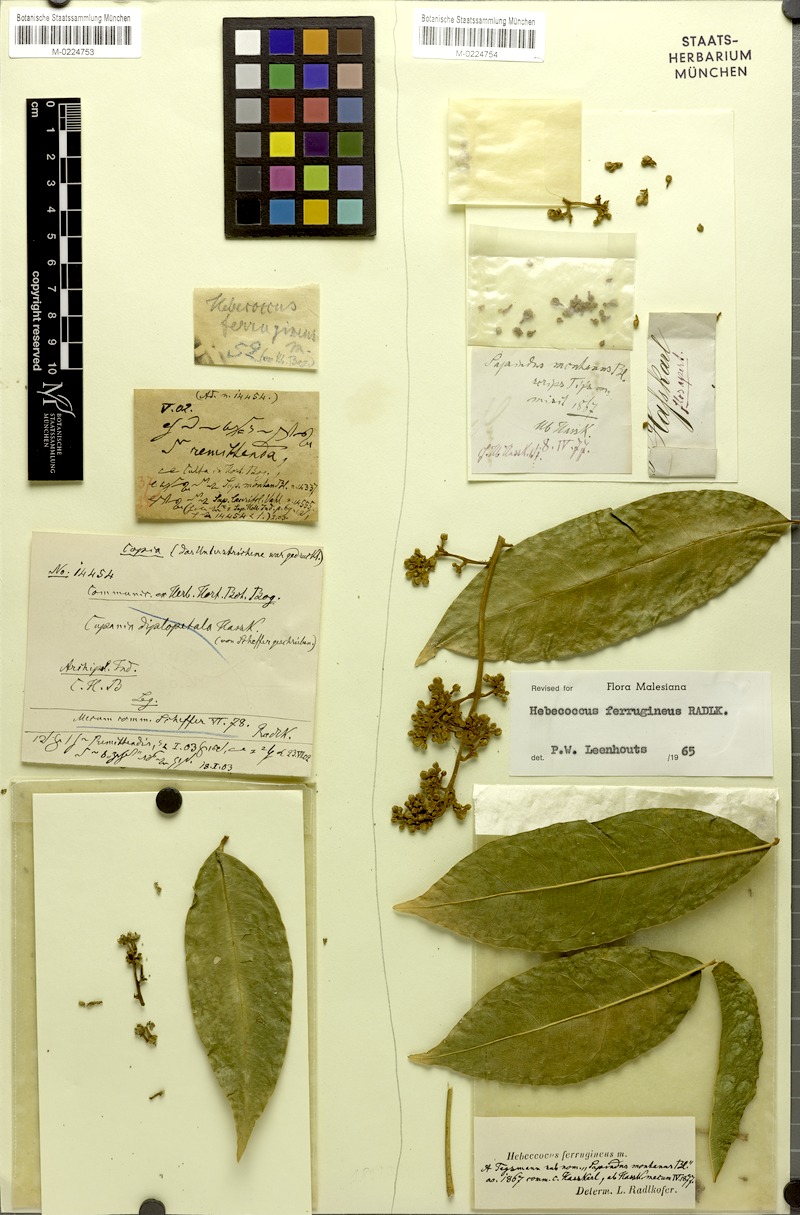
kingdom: Plantae
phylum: Tracheophyta
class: Magnoliopsida
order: Sapindales
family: Sapindaceae
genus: Lepisanthes
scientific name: Lepisanthes ferruginea
